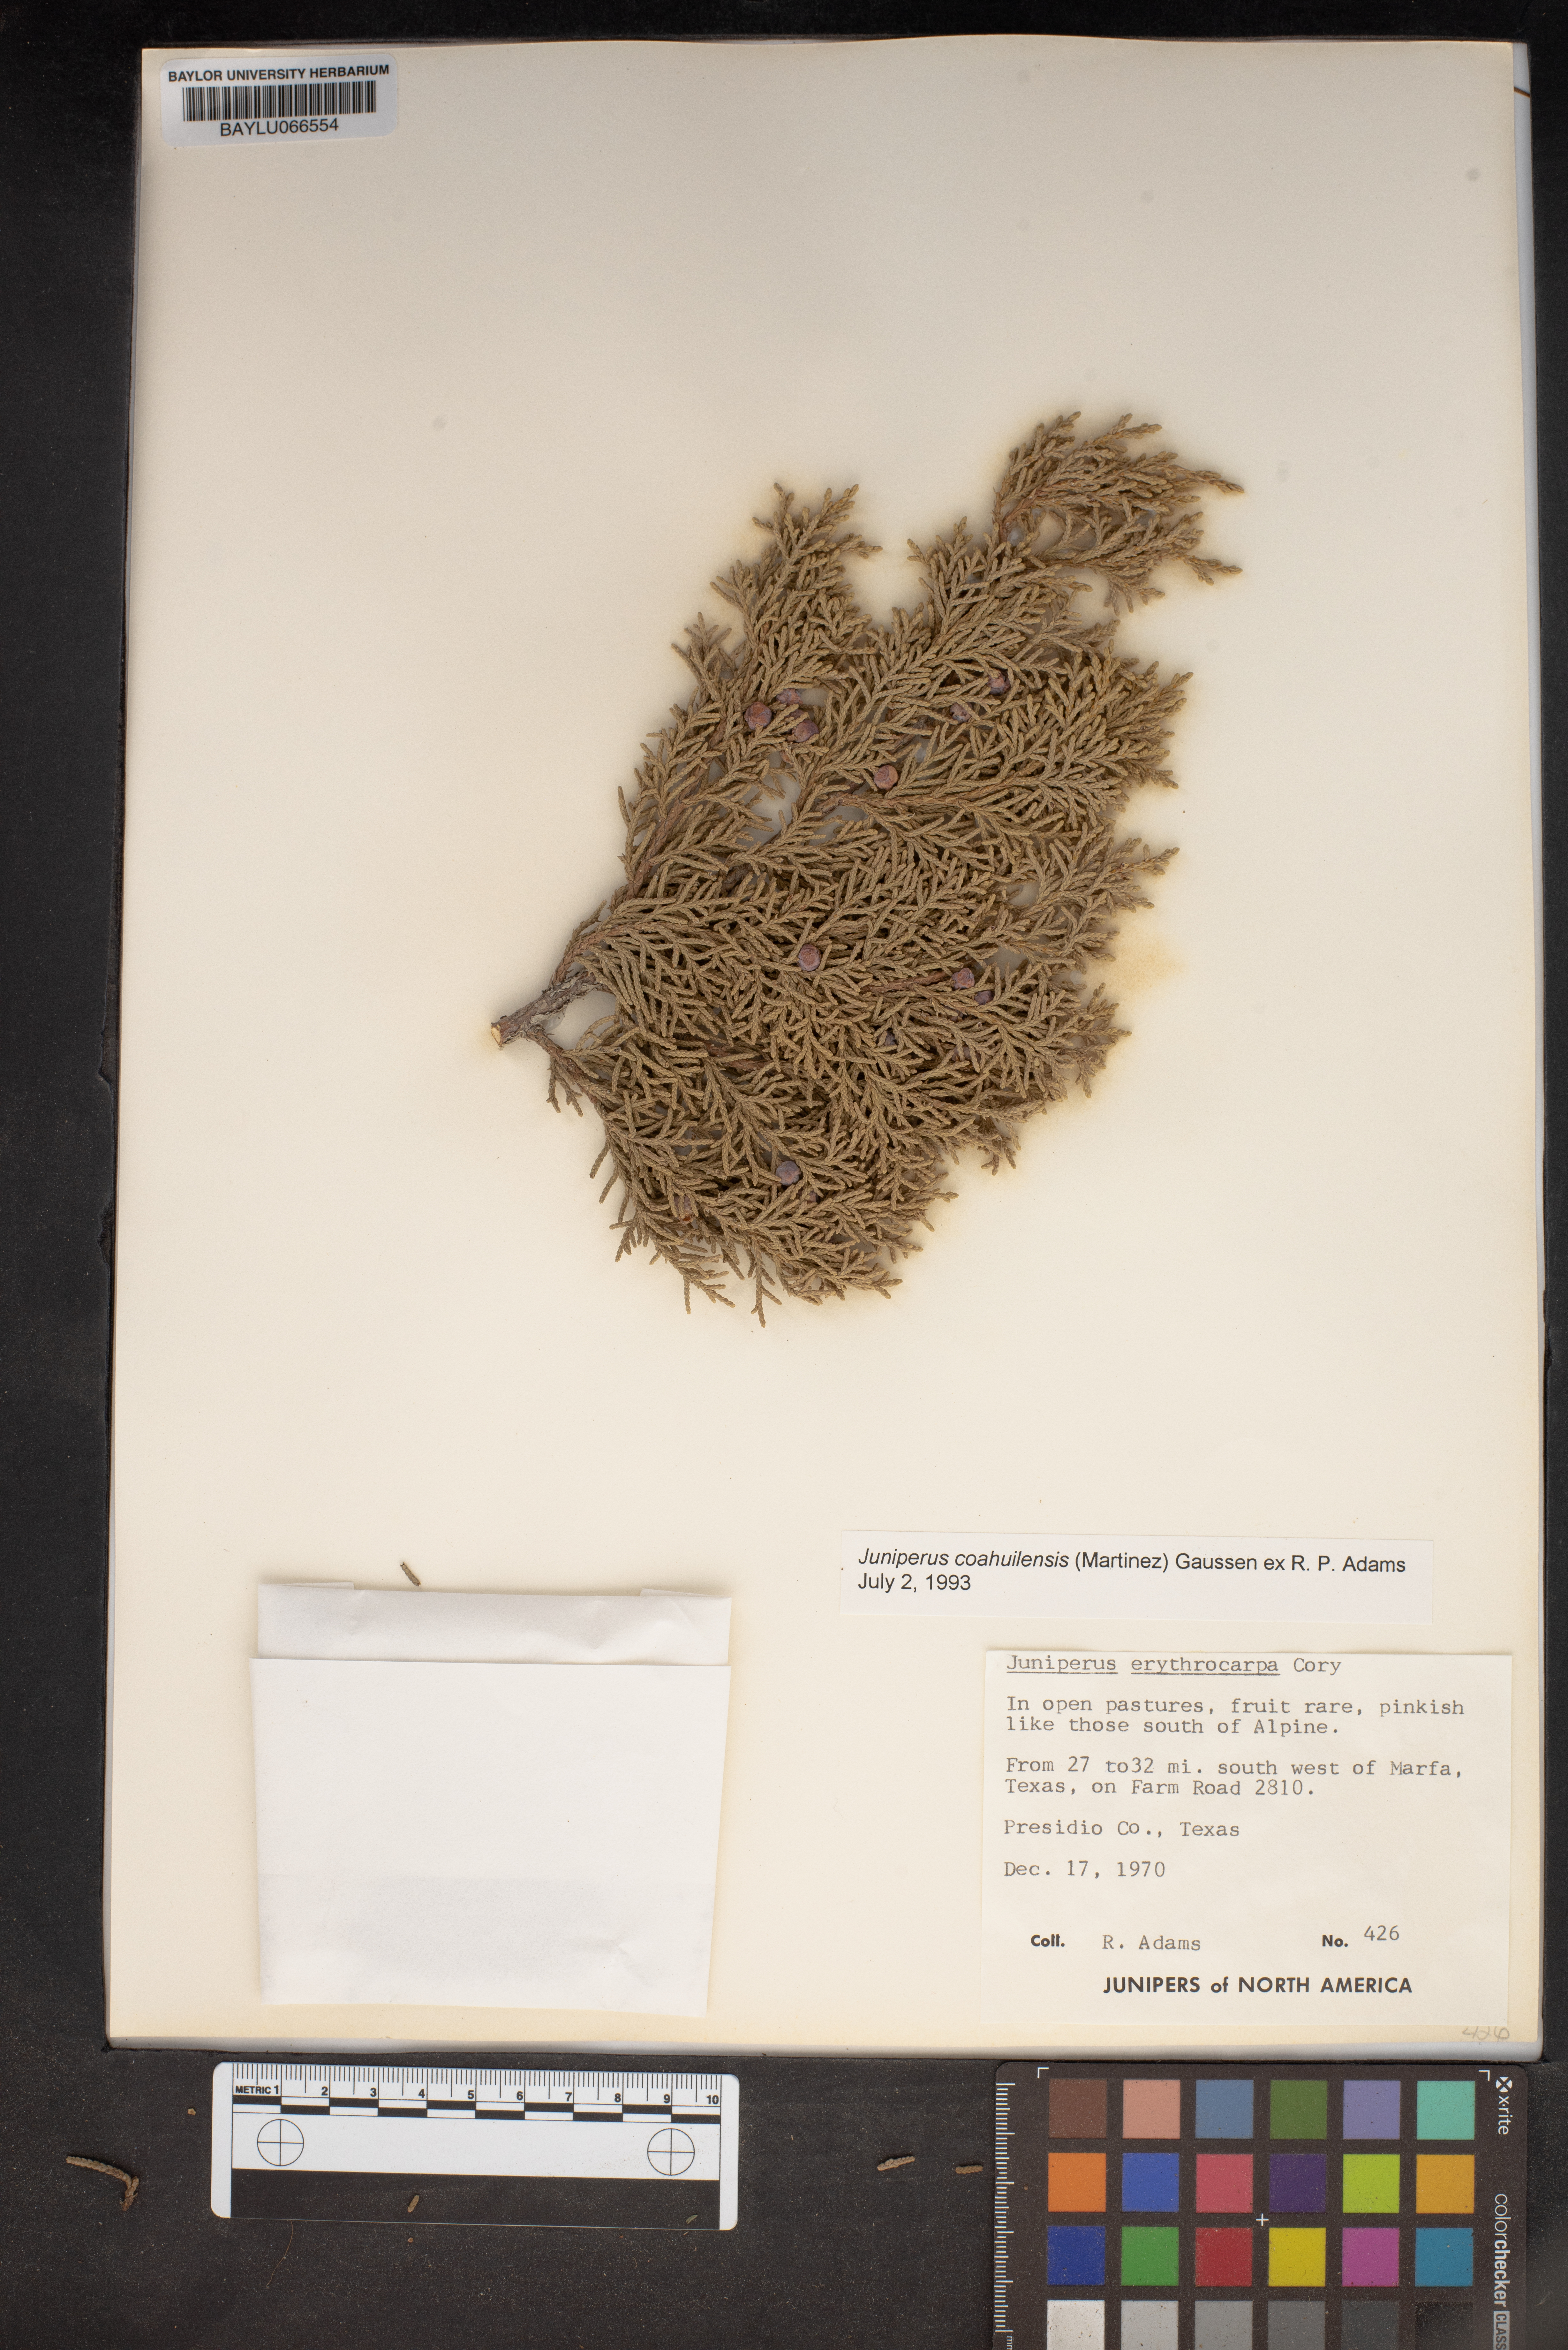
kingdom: Plantae
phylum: Tracheophyta
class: Pinopsida
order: Pinales
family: Cupressaceae
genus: Juniperus
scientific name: Juniperus coahuilensis
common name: Roseberry
